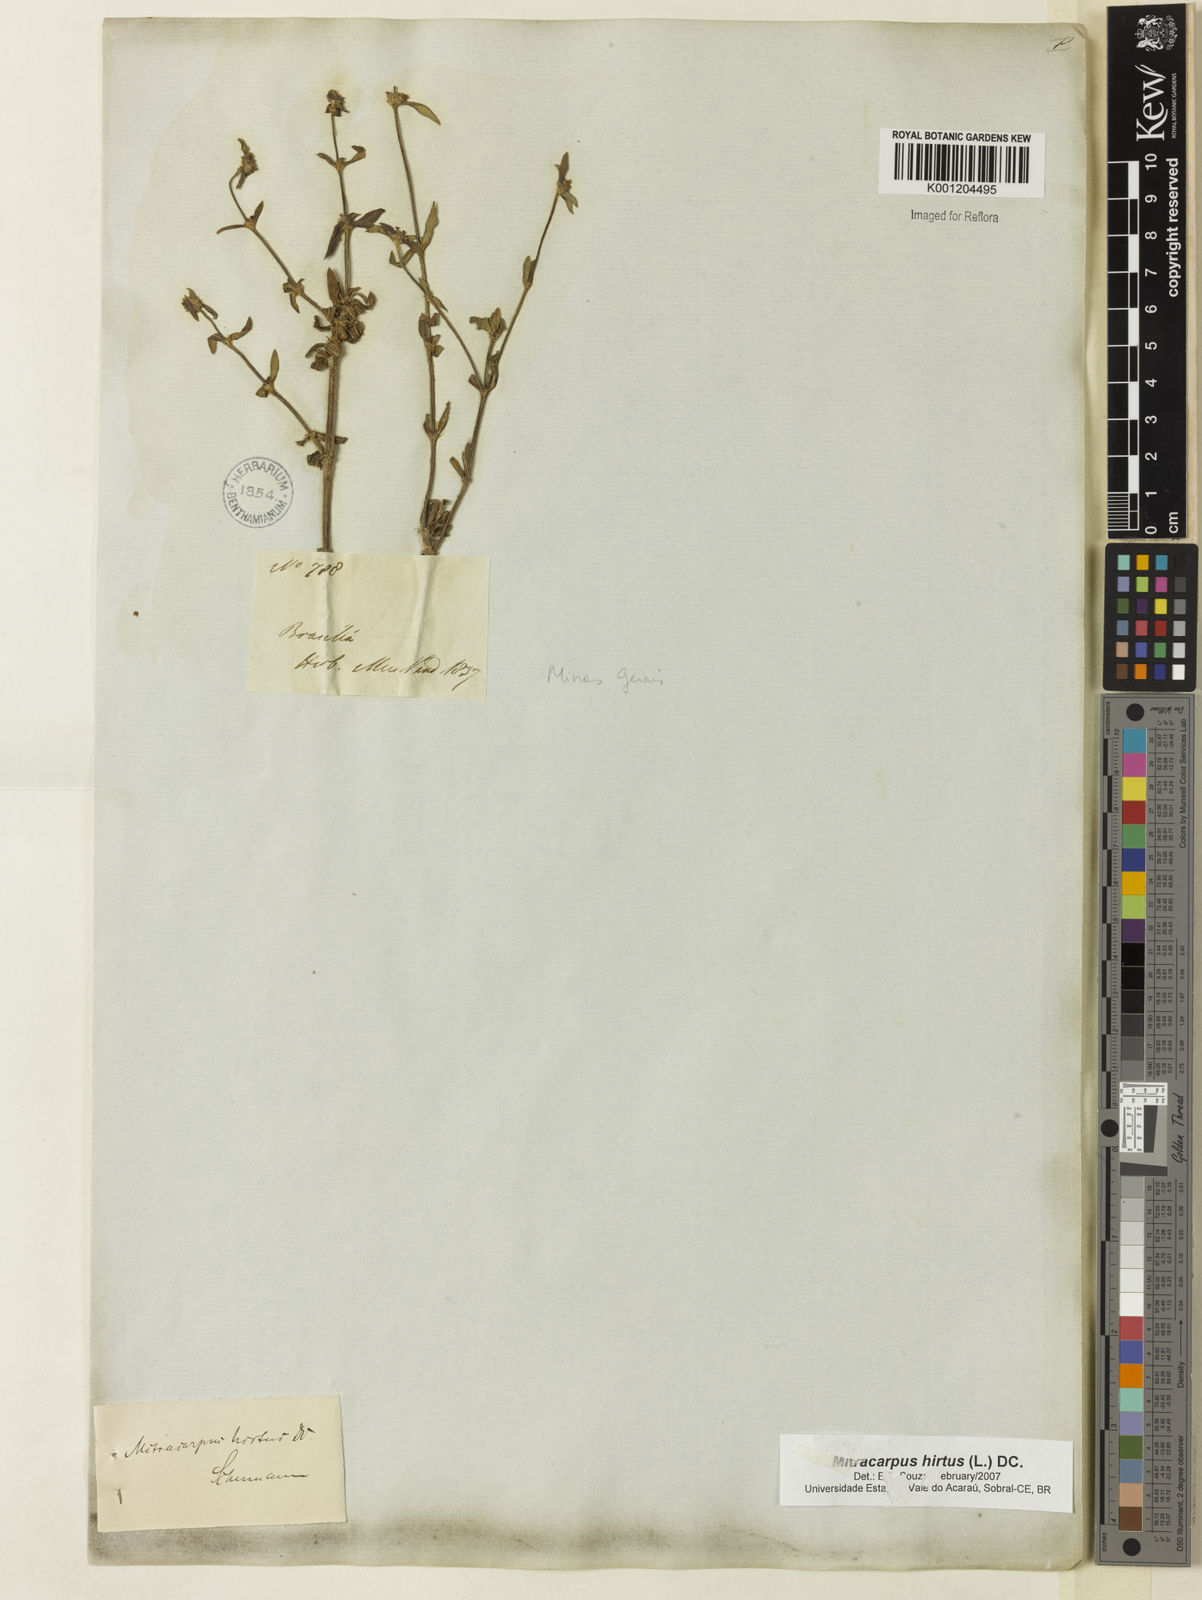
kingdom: Plantae
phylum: Tracheophyta
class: Magnoliopsida
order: Gentianales
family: Rubiaceae
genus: Mitracarpus
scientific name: Mitracarpus hirtus
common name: Tropical girdlepod
